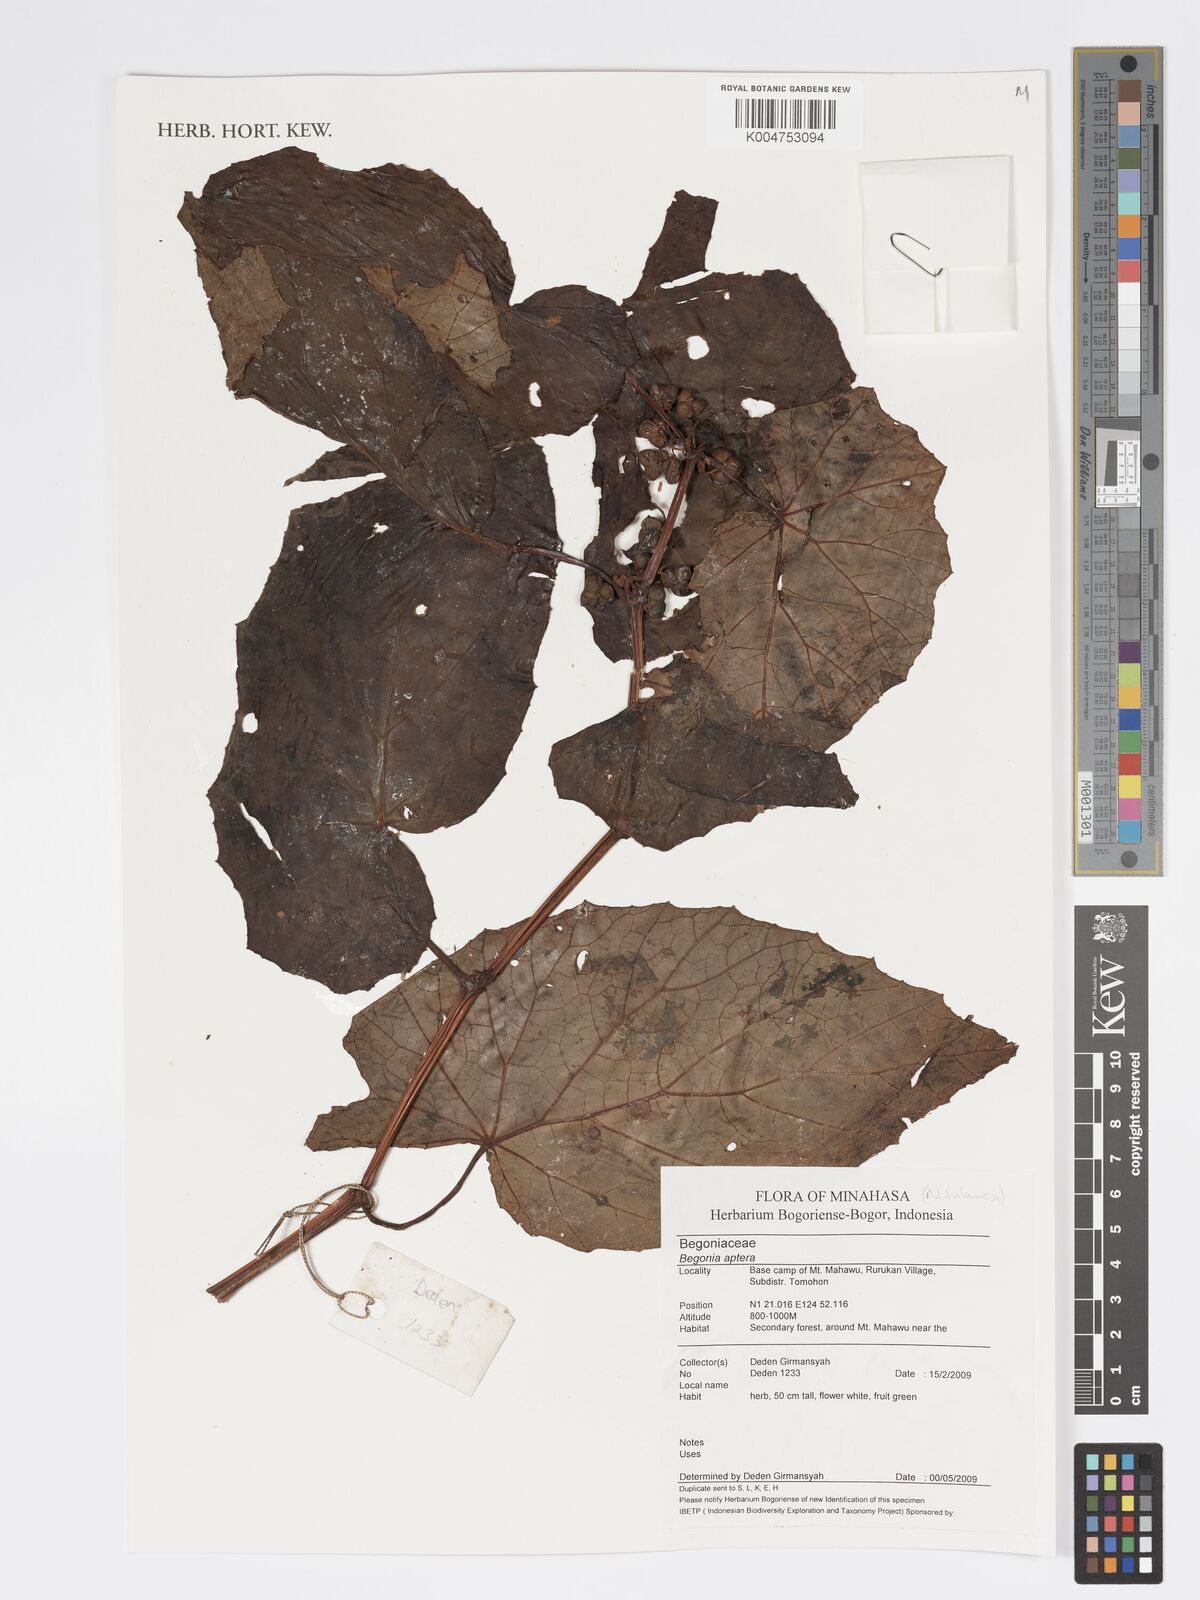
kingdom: Plantae
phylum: Tracheophyta
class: Magnoliopsida
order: Cucurbitales
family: Begoniaceae
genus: Begonia
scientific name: Begonia
